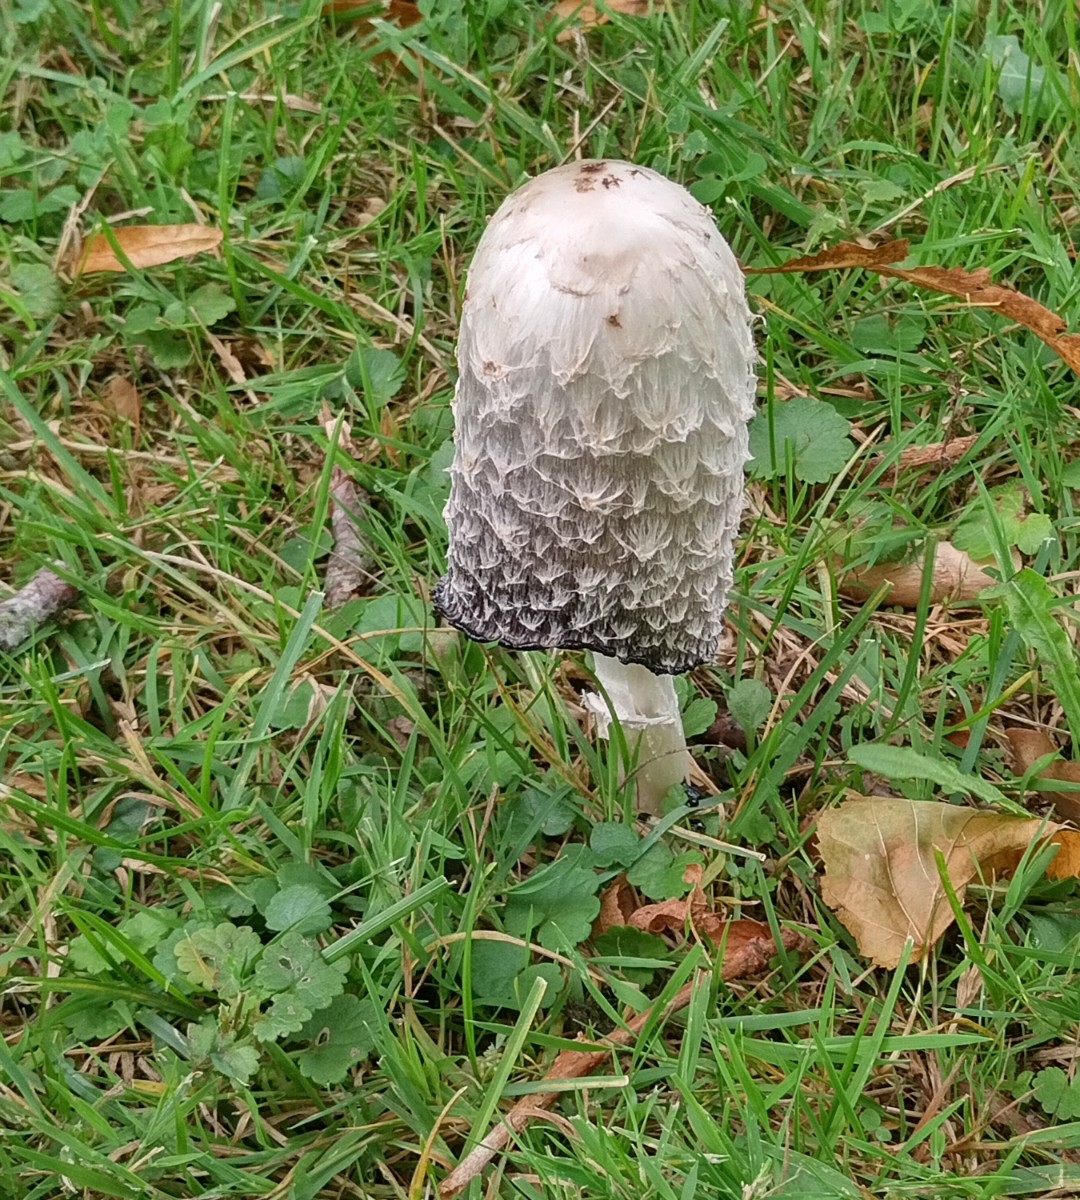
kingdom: Fungi
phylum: Basidiomycota
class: Agaricomycetes
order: Agaricales
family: Agaricaceae
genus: Coprinus
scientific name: Coprinus comatus
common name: stor parykhat
